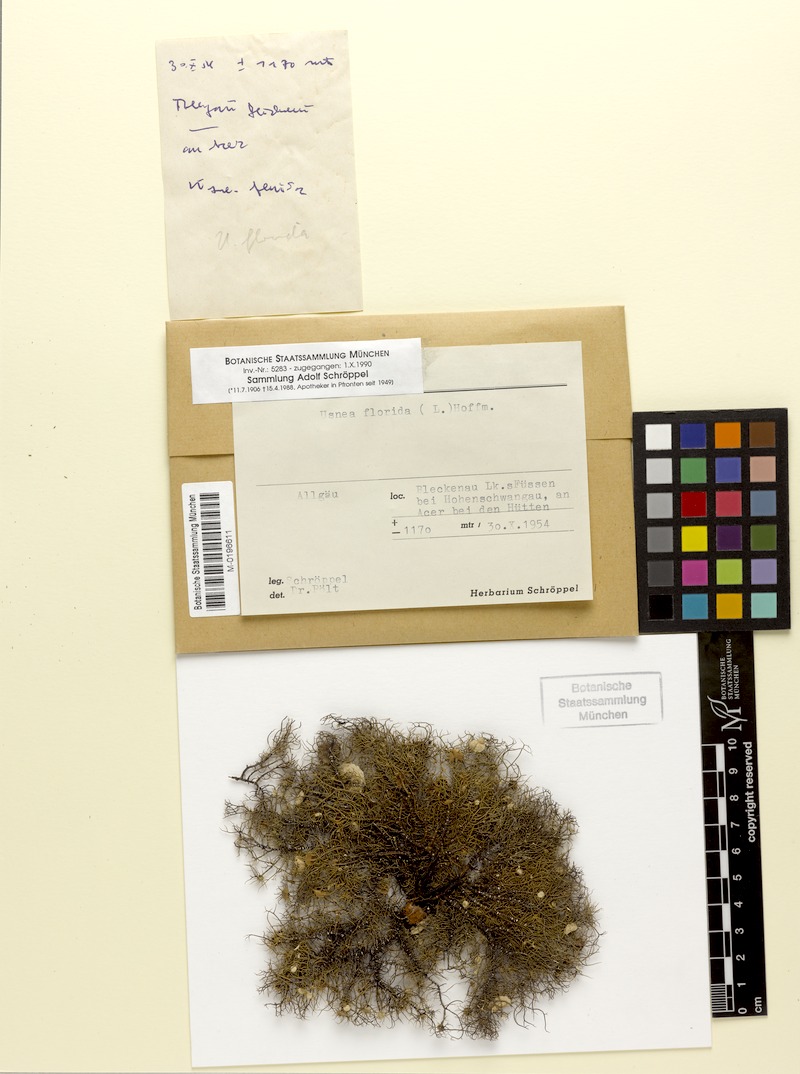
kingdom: Fungi
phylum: Ascomycota
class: Lecanoromycetes
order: Lecanorales
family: Parmeliaceae
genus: Usnea
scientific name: Usnea florida
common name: Witches' whiskers lichen
